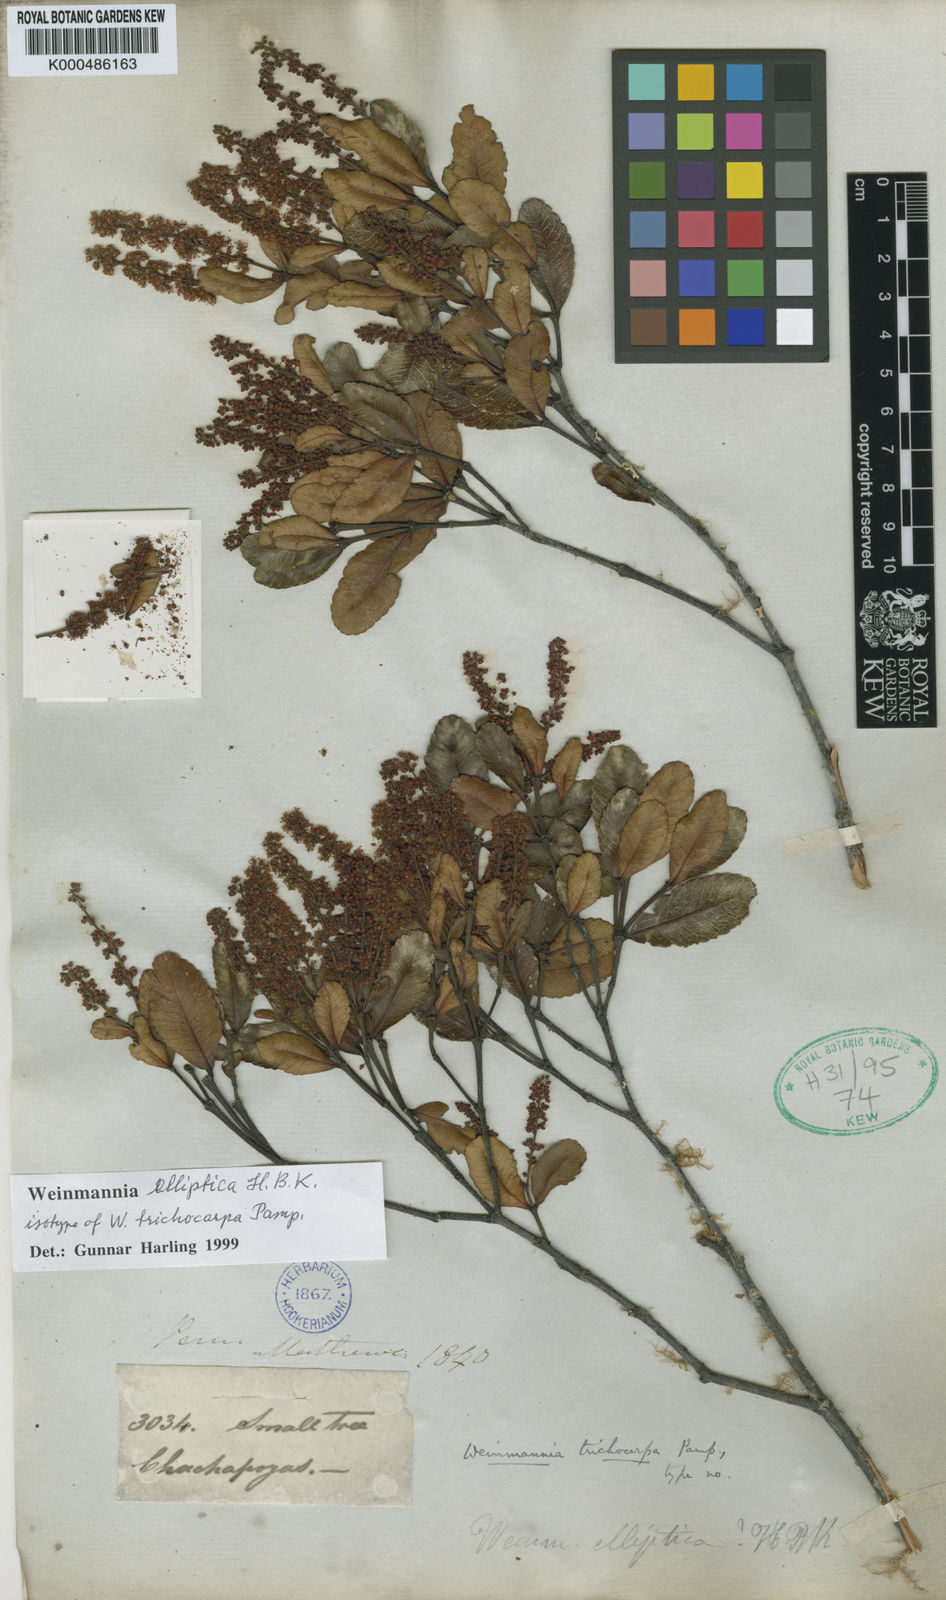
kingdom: Plantae
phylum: Tracheophyta
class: Magnoliopsida
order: Oxalidales
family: Cunoniaceae
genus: Weinmannia
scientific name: Weinmannia elliptica
